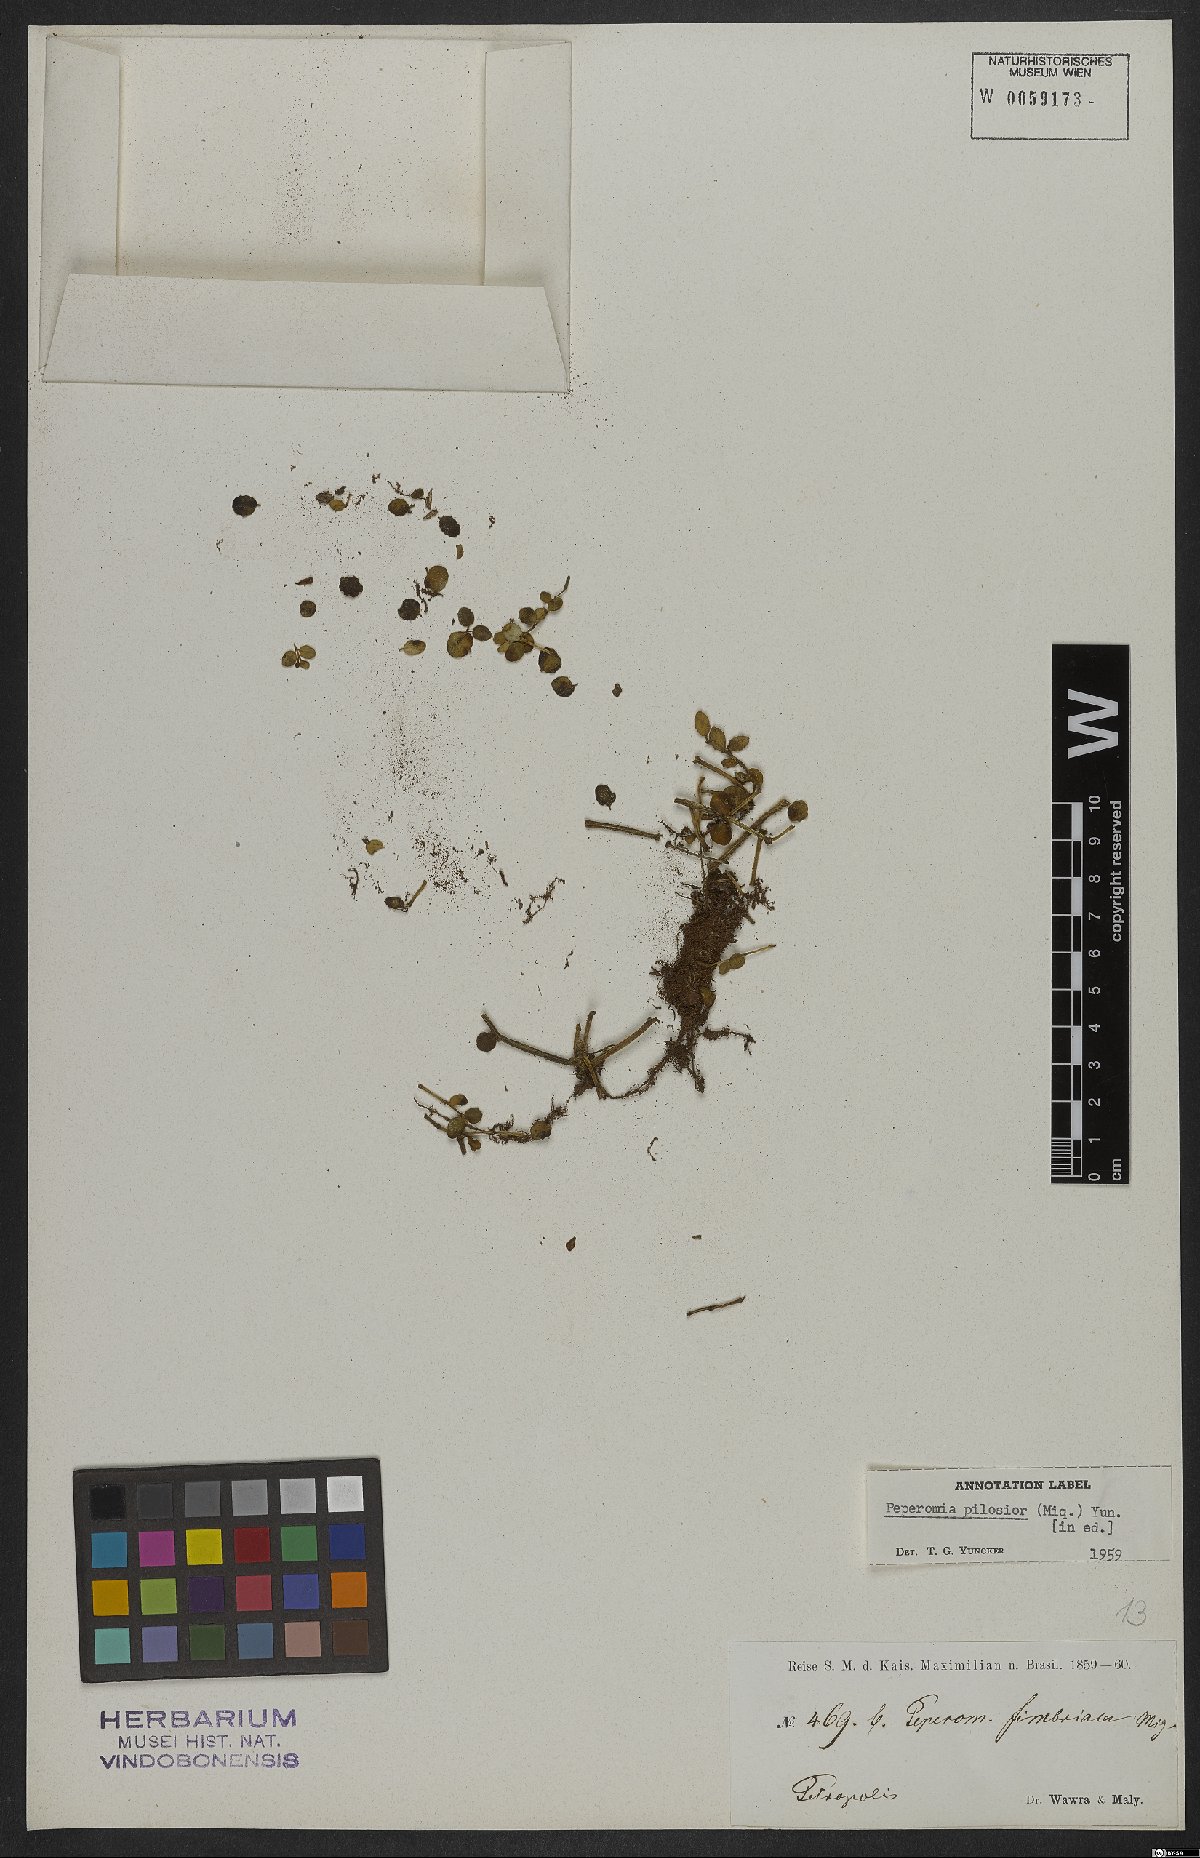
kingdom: Plantae
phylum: Tracheophyta
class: Magnoliopsida
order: Piperales
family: Piperaceae
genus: Peperomia
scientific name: Peperomia urocarpa
